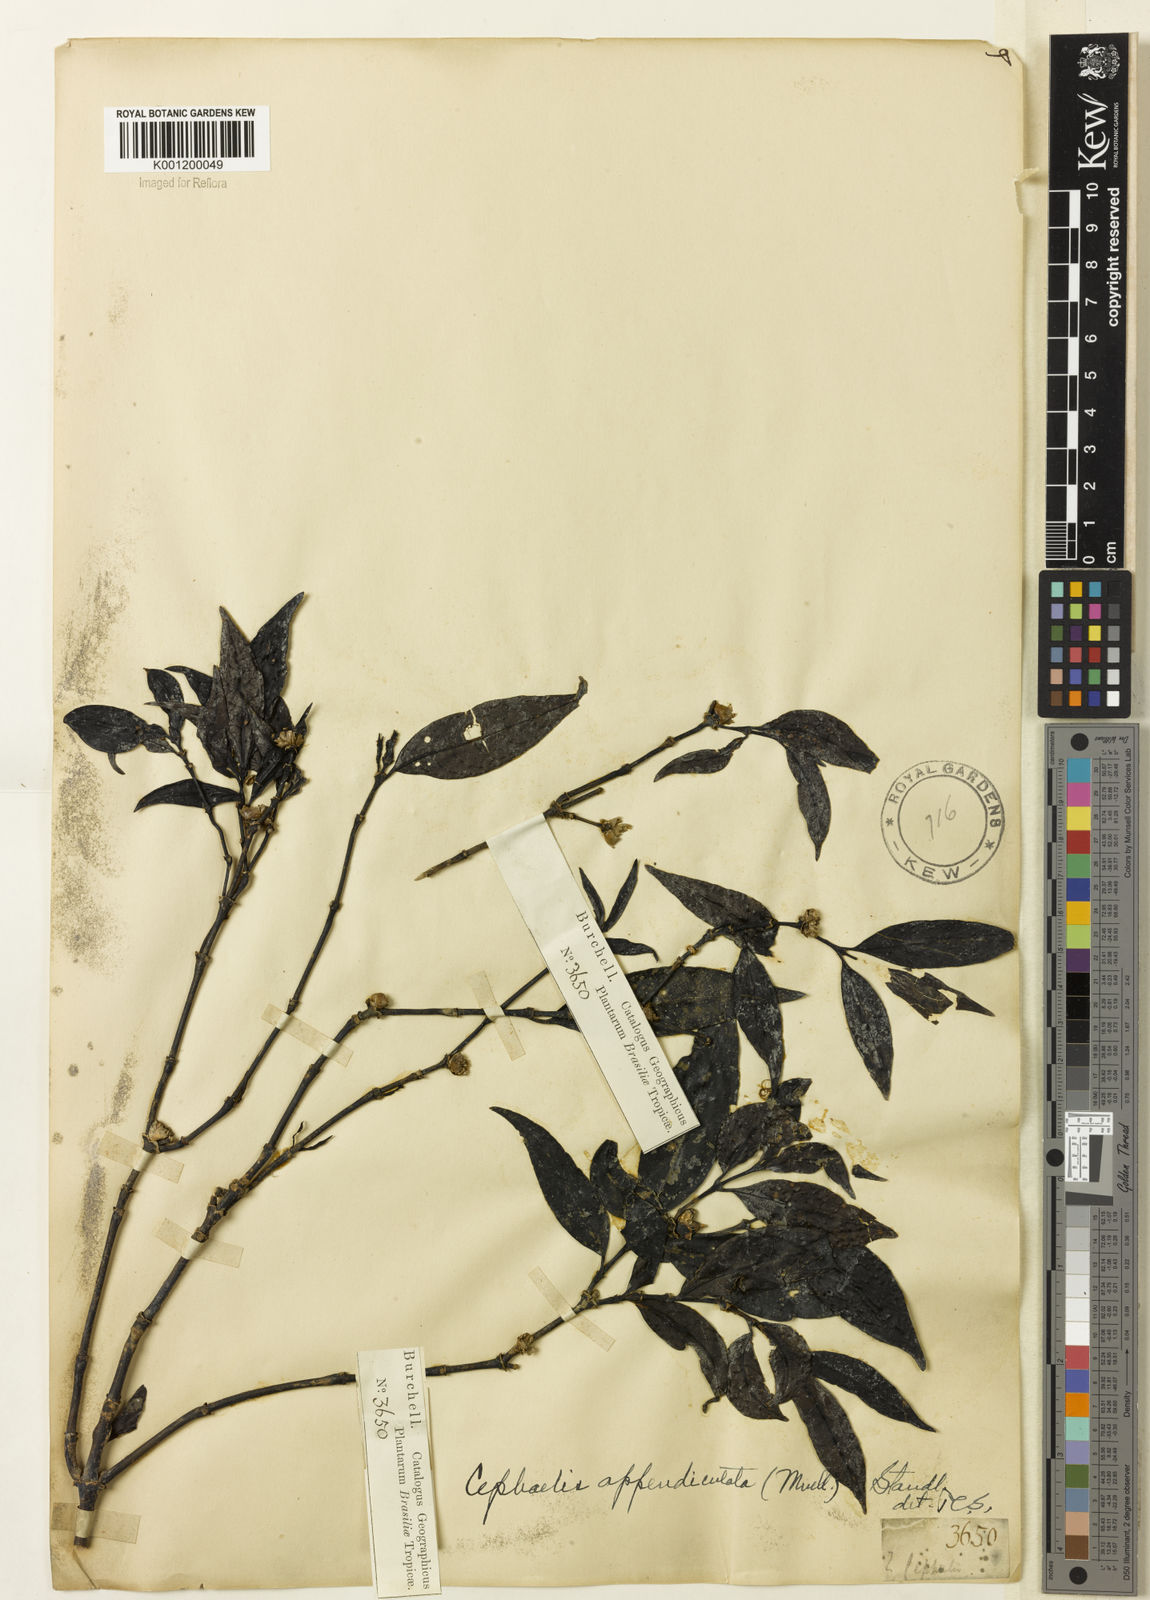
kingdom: Plantae
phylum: Tracheophyta
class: Magnoliopsida
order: Gentianales
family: Rubiaceae
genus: Psychotria
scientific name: Psychotria
